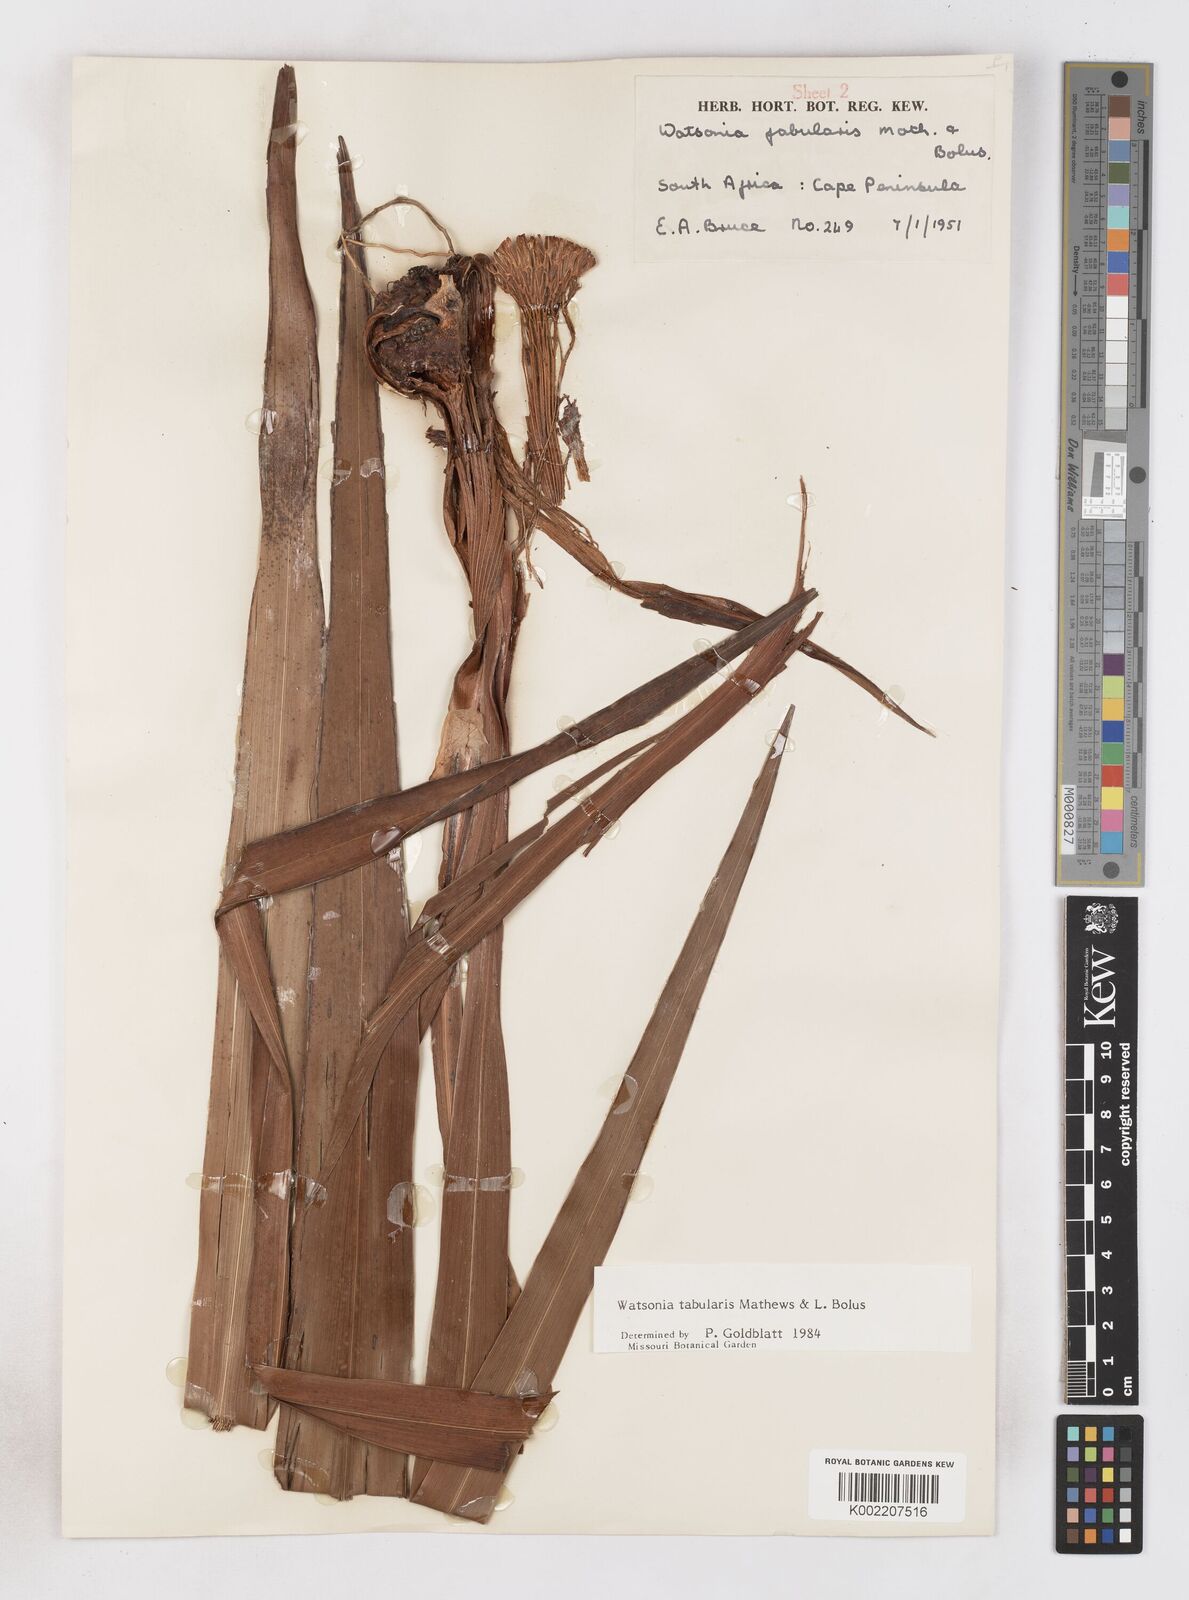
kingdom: Plantae
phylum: Tracheophyta
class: Liliopsida
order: Asparagales
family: Iridaceae
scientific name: Iridaceae
